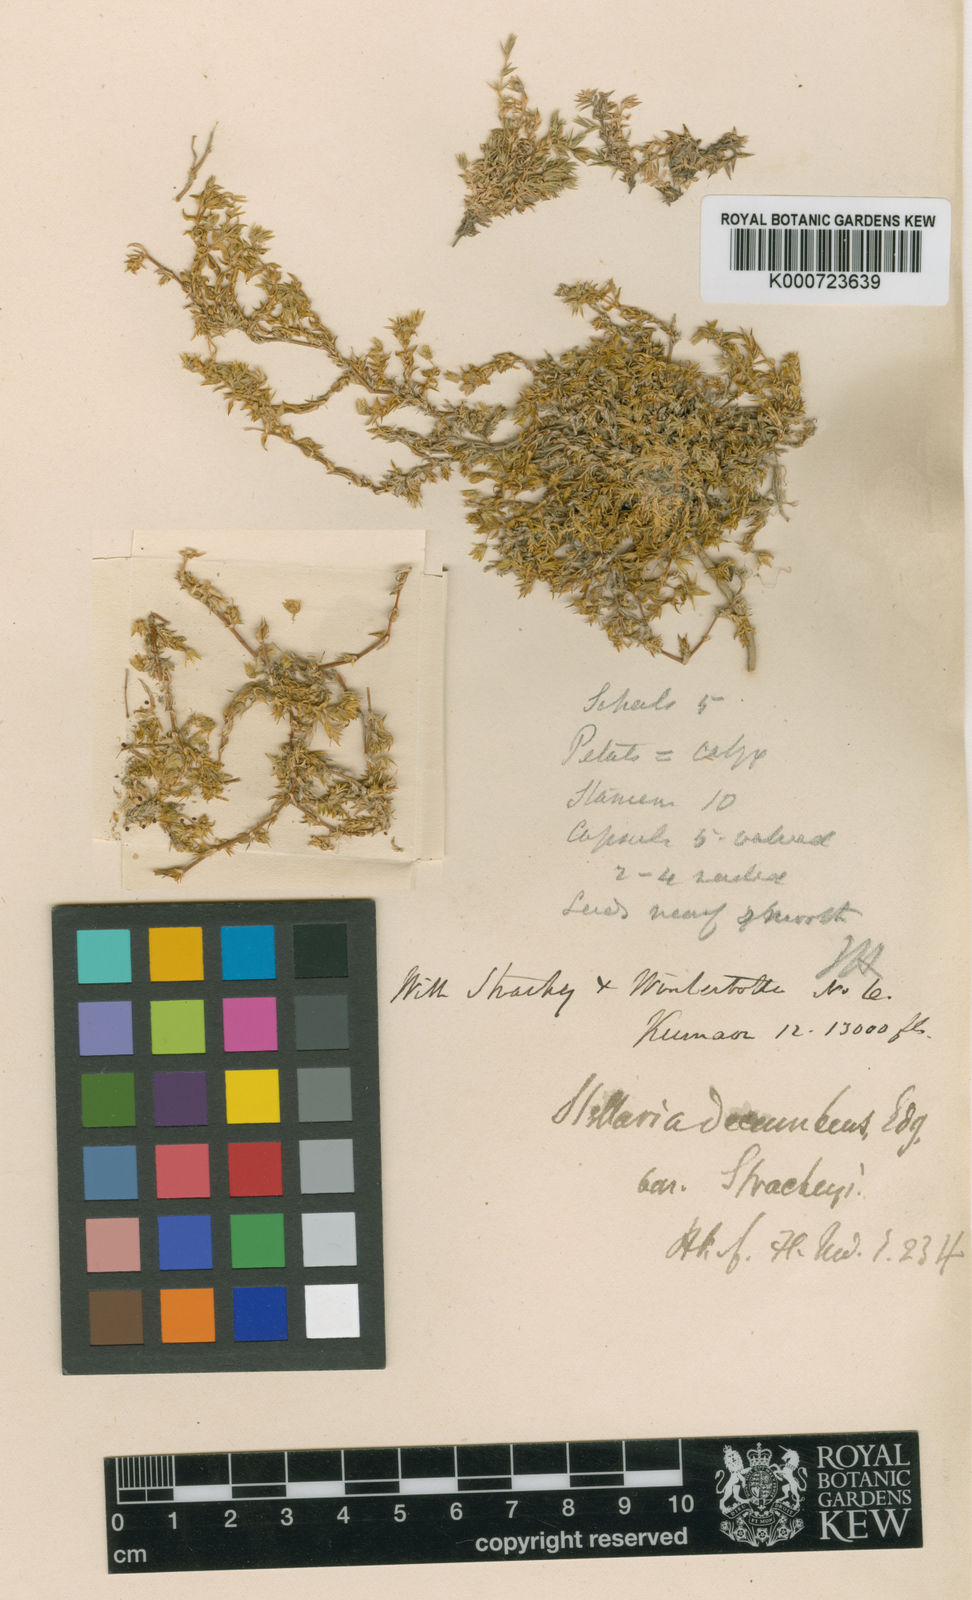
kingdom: Plantae
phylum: Tracheophyta
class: Magnoliopsida
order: Caryophyllales
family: Caryophyllaceae
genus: Stellaria
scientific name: Stellaria decumbens
